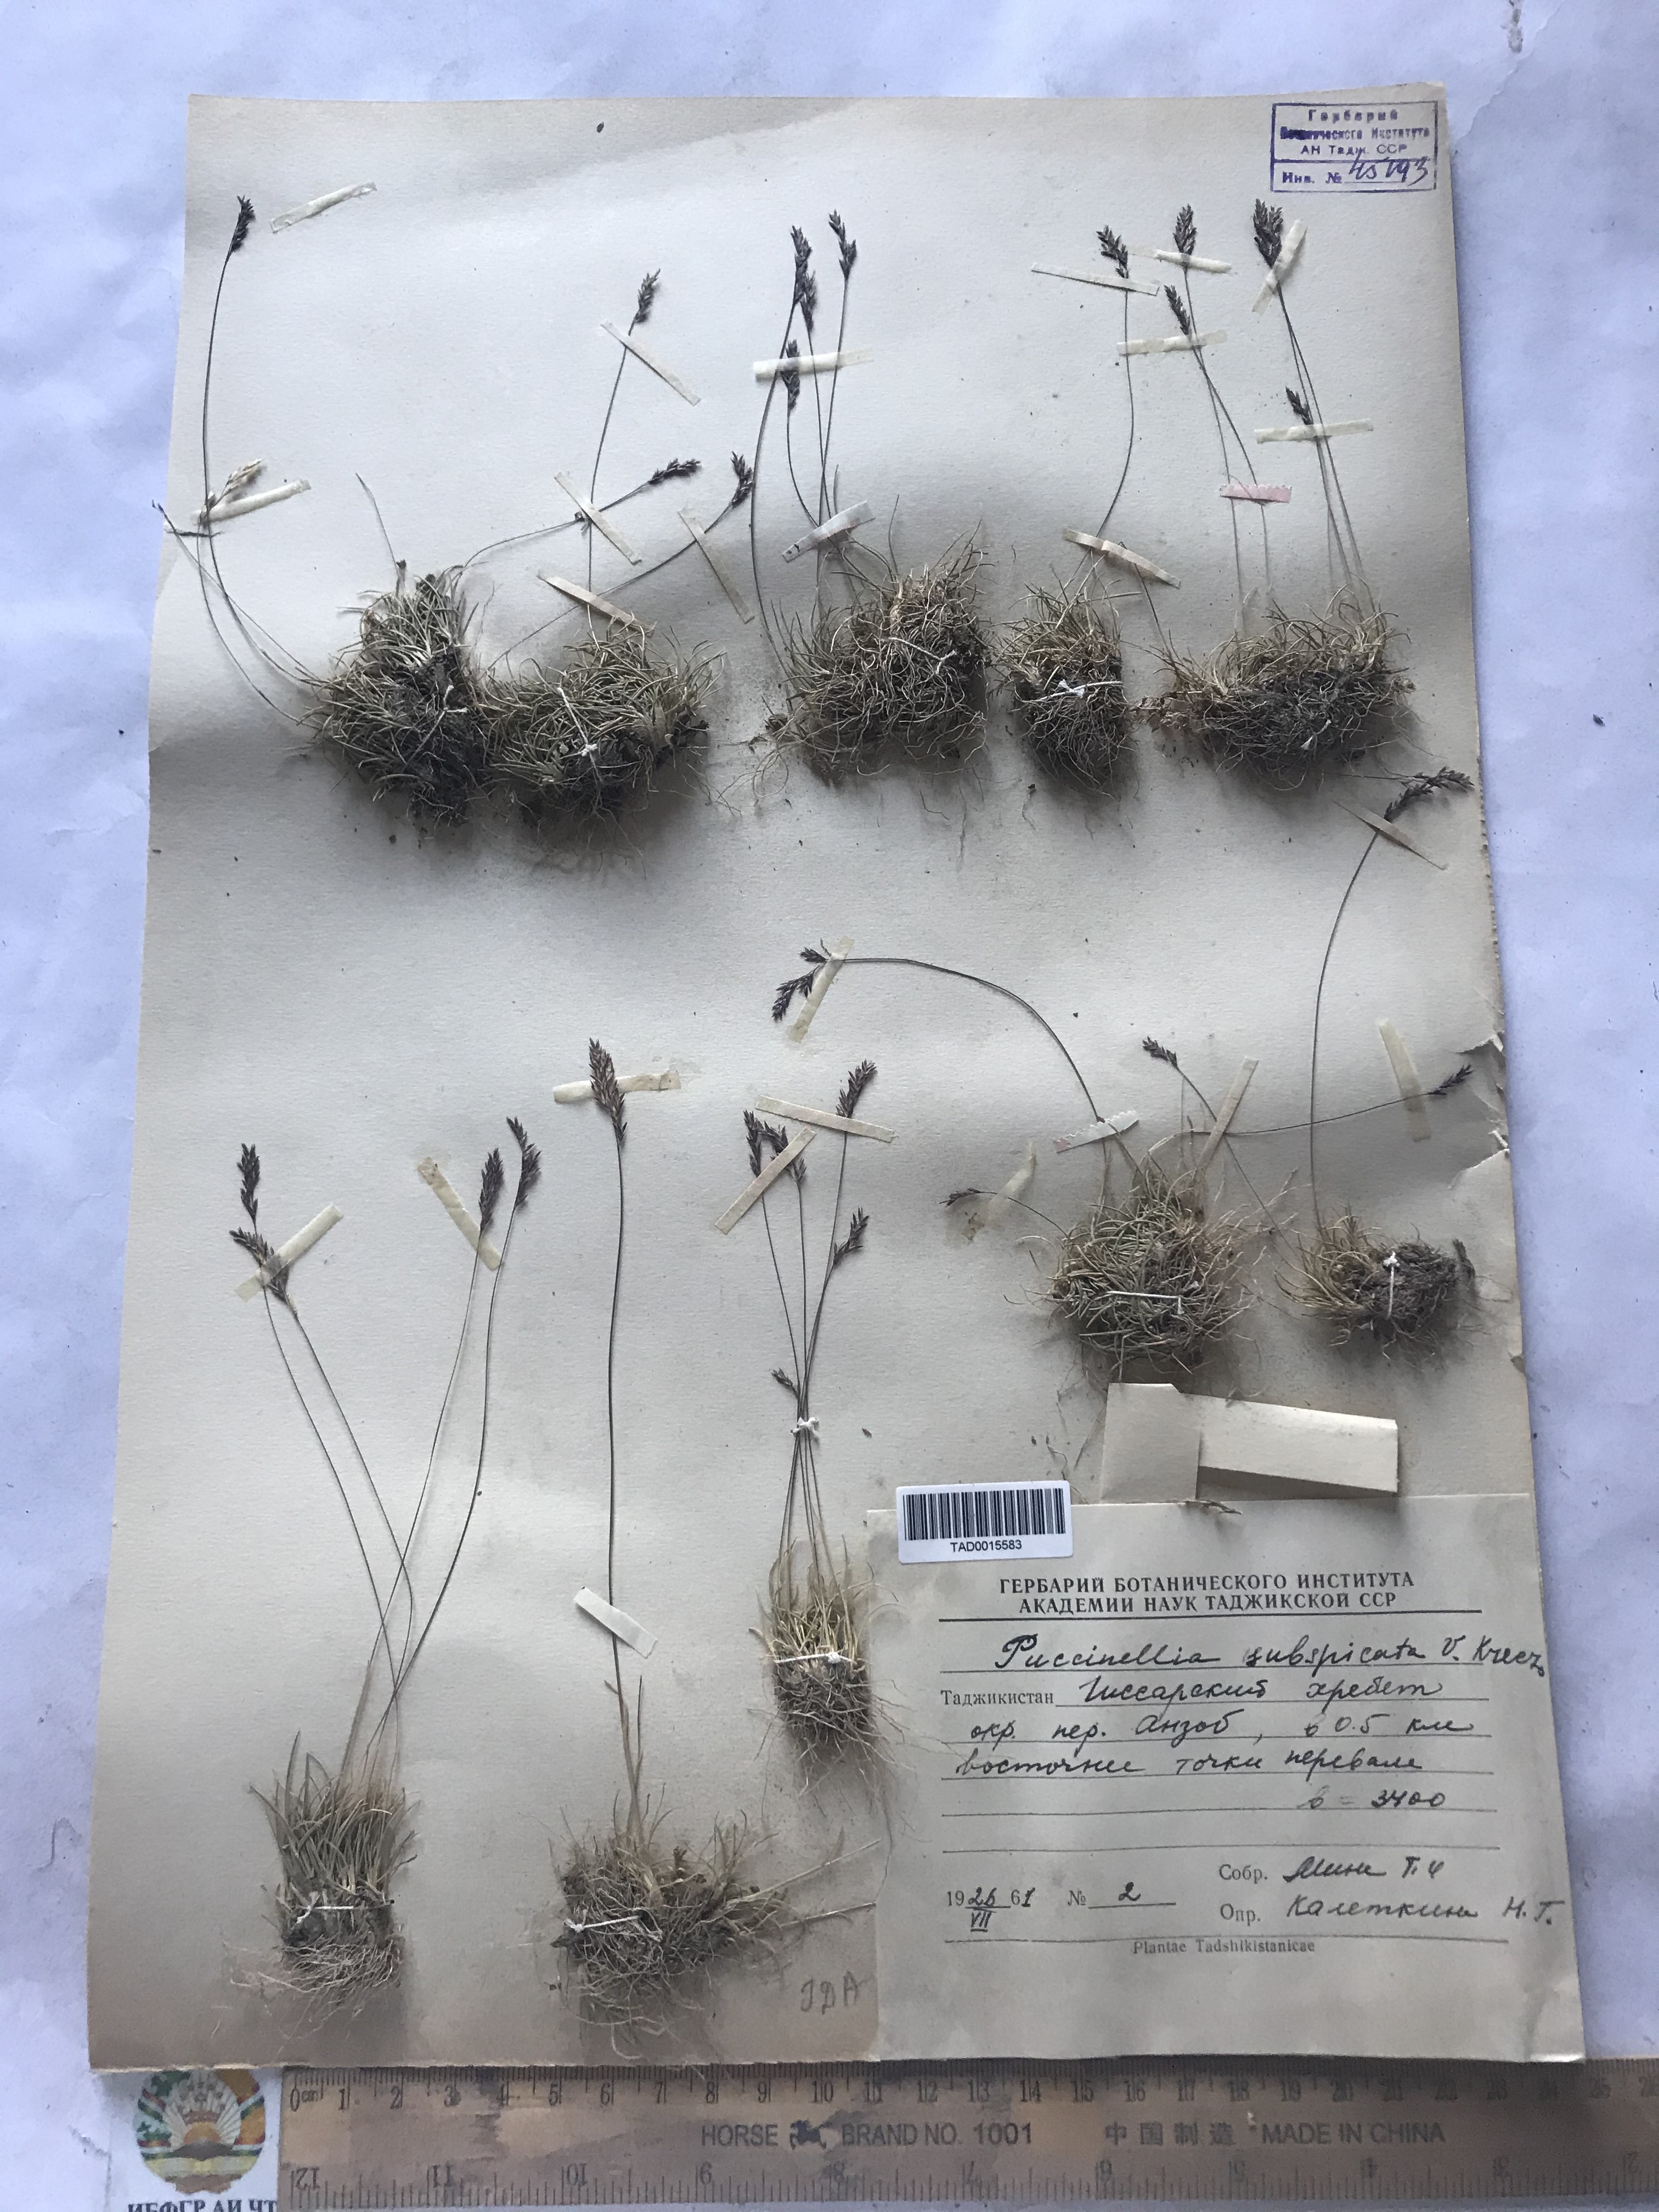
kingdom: Plantae
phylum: Tracheophyta
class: Liliopsida
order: Poales
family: Poaceae
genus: Puccinellia
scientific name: Puccinellia subspicata
